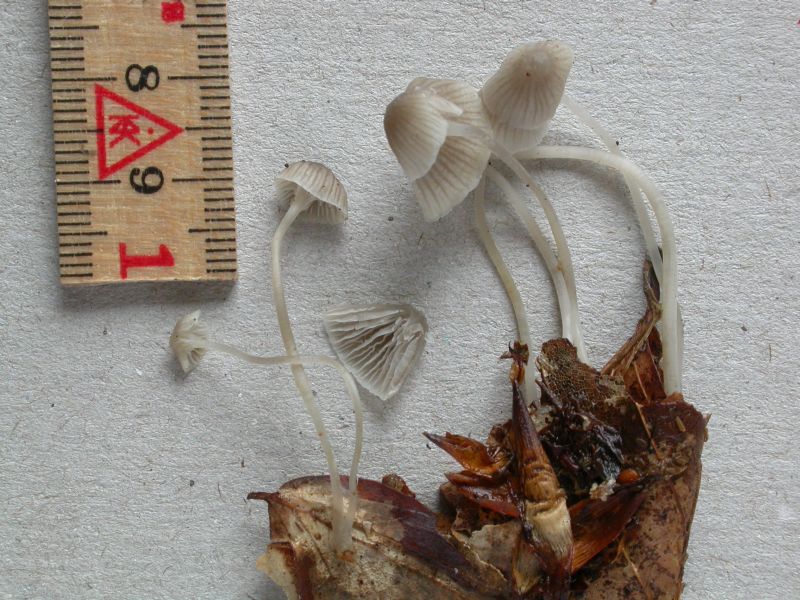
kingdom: Fungi
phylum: Basidiomycota
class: Agaricomycetes
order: Agaricales
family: Mycenaceae
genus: Mycena
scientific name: Mycena cinerella
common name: mel-huesvamp
